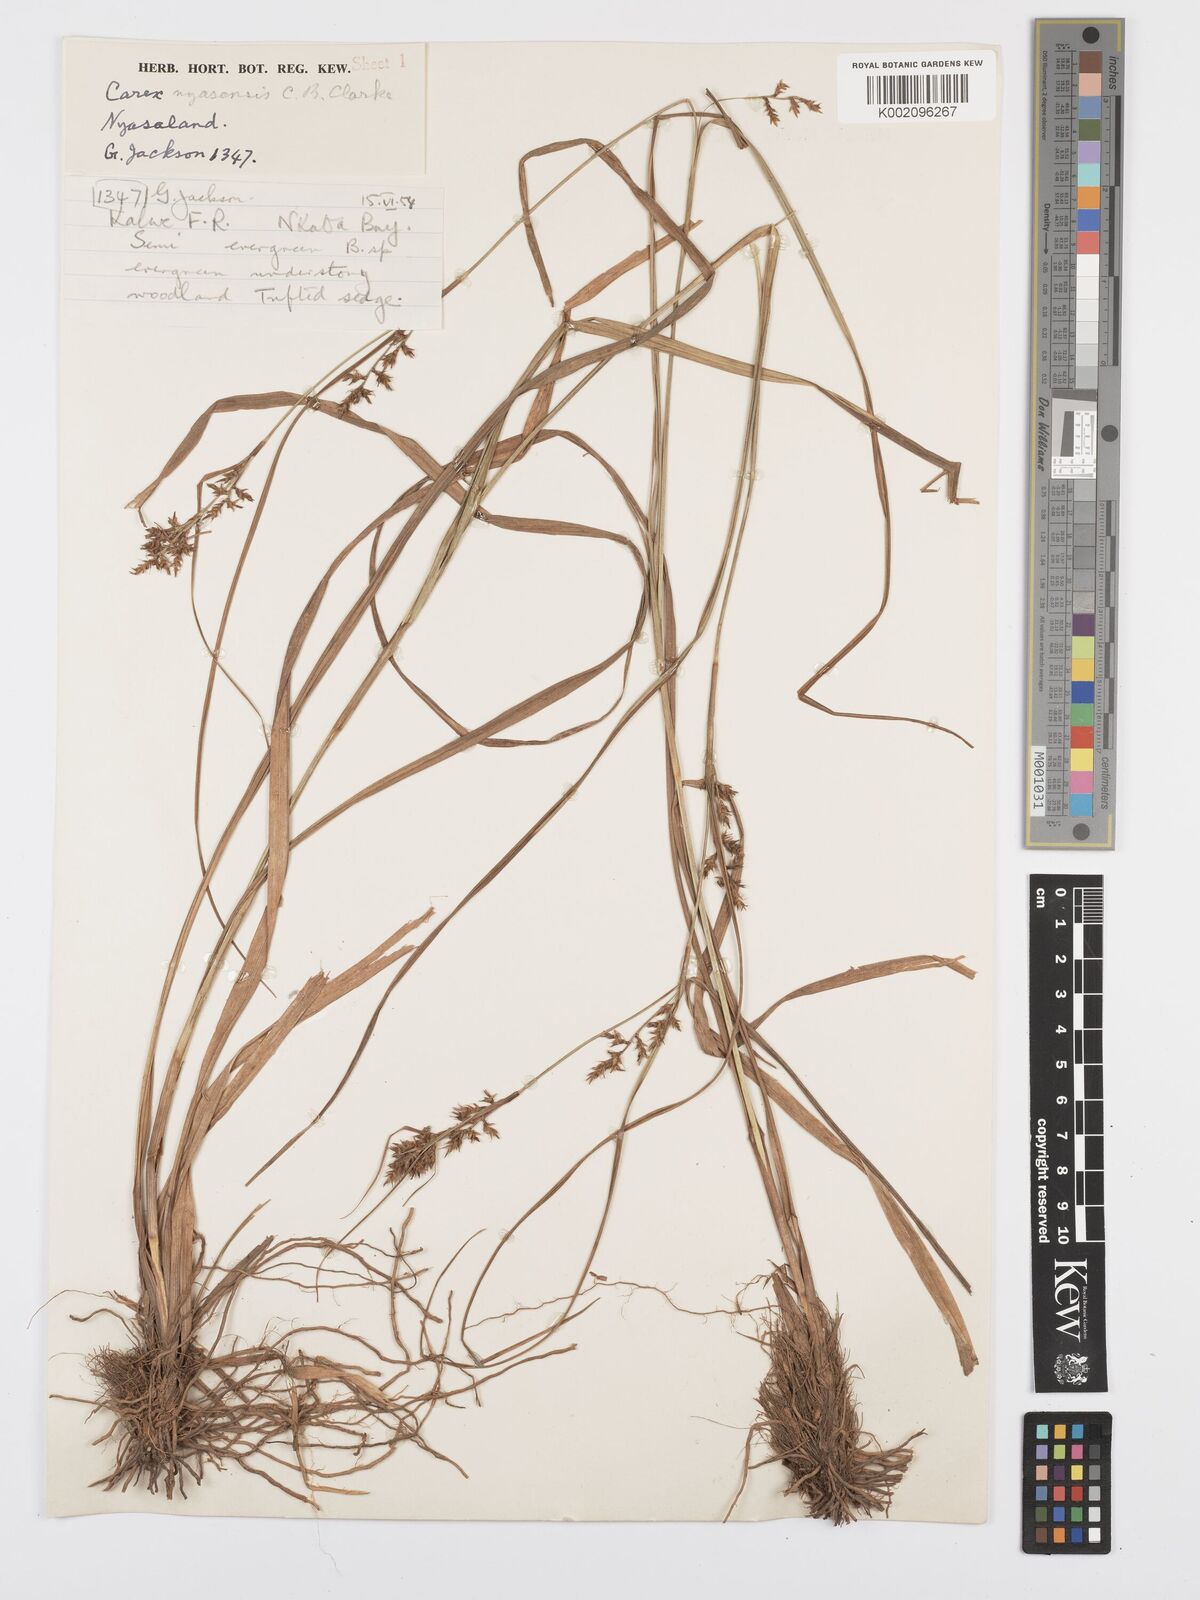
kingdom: Plantae
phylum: Tracheophyta
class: Liliopsida
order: Poales
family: Cyperaceae
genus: Carex
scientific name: Carex spicatopaniculata
